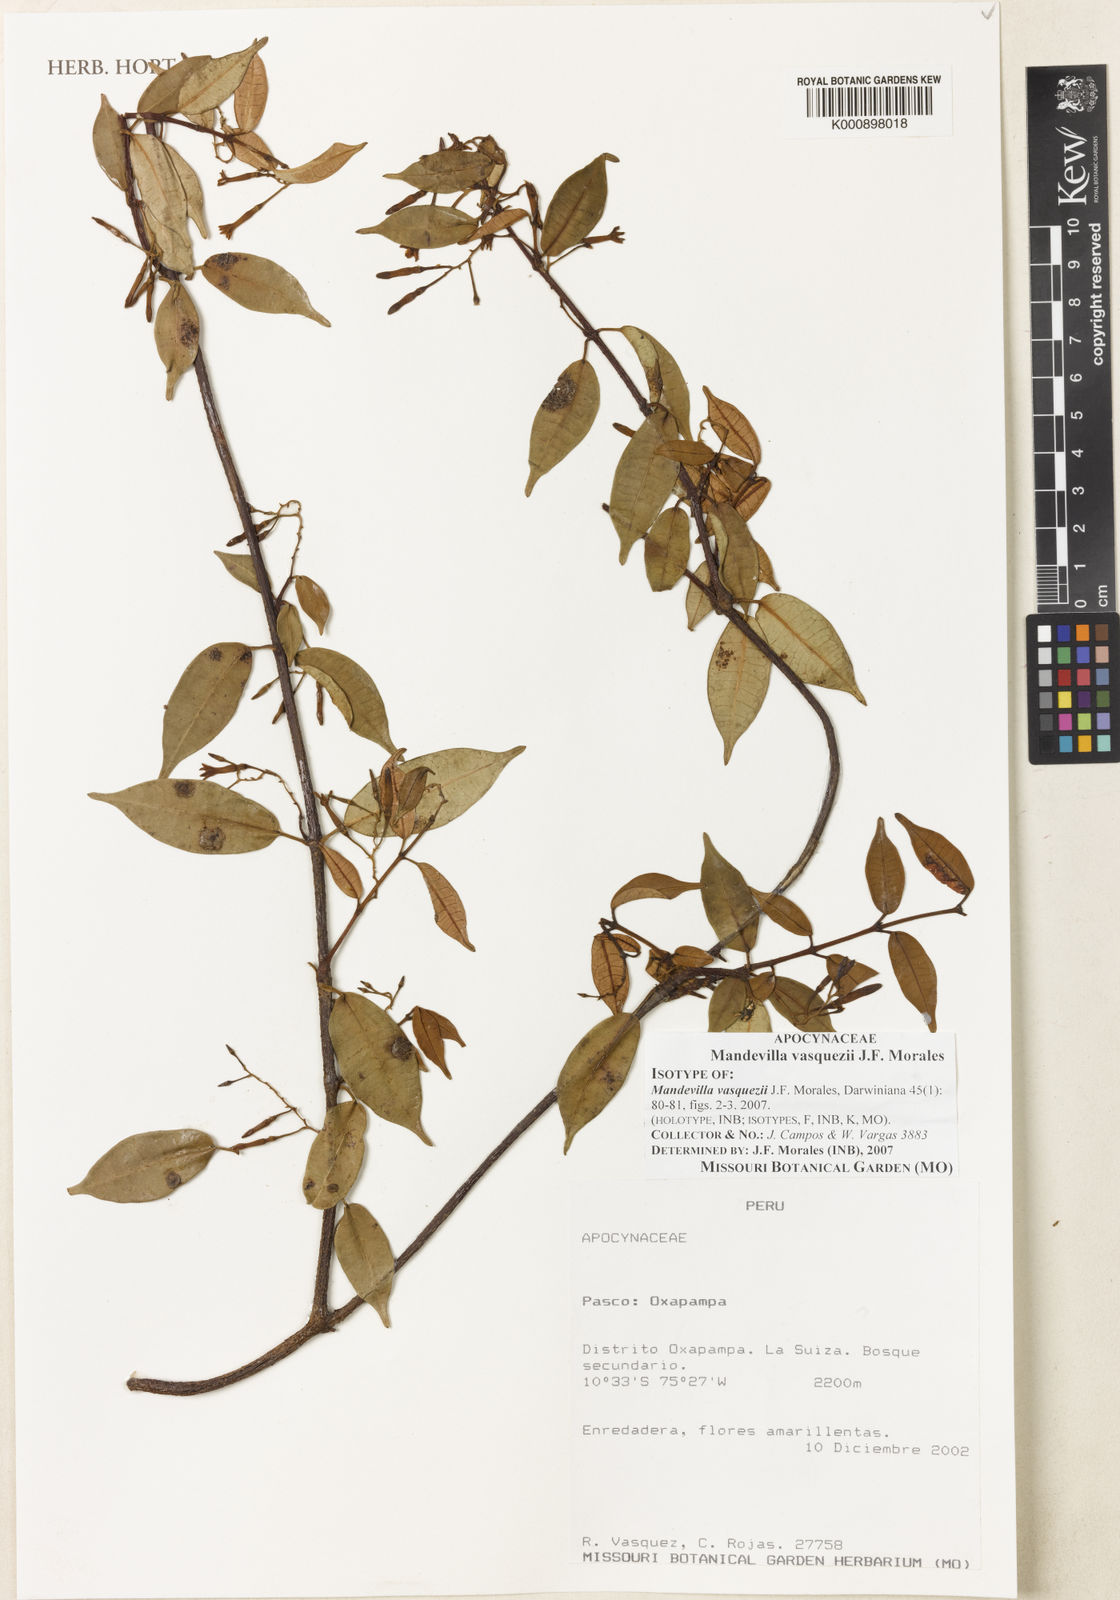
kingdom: Plantae
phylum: Tracheophyta
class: Magnoliopsida
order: Gentianales
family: Apocynaceae
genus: Mandevilla
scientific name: Mandevilla vasquezii
